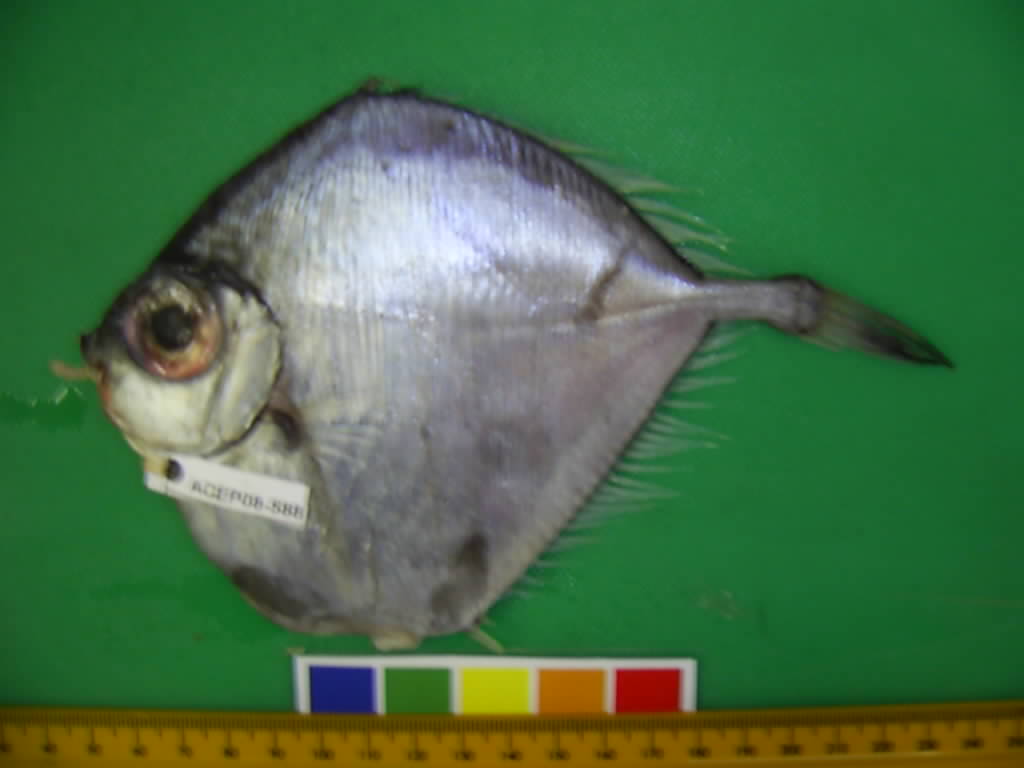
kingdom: Animalia
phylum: Chordata
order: Zeiformes
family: Grammicolepididae
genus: Grammicolepis
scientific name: Grammicolepis brachiusculus
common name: Thorny tinselfish
